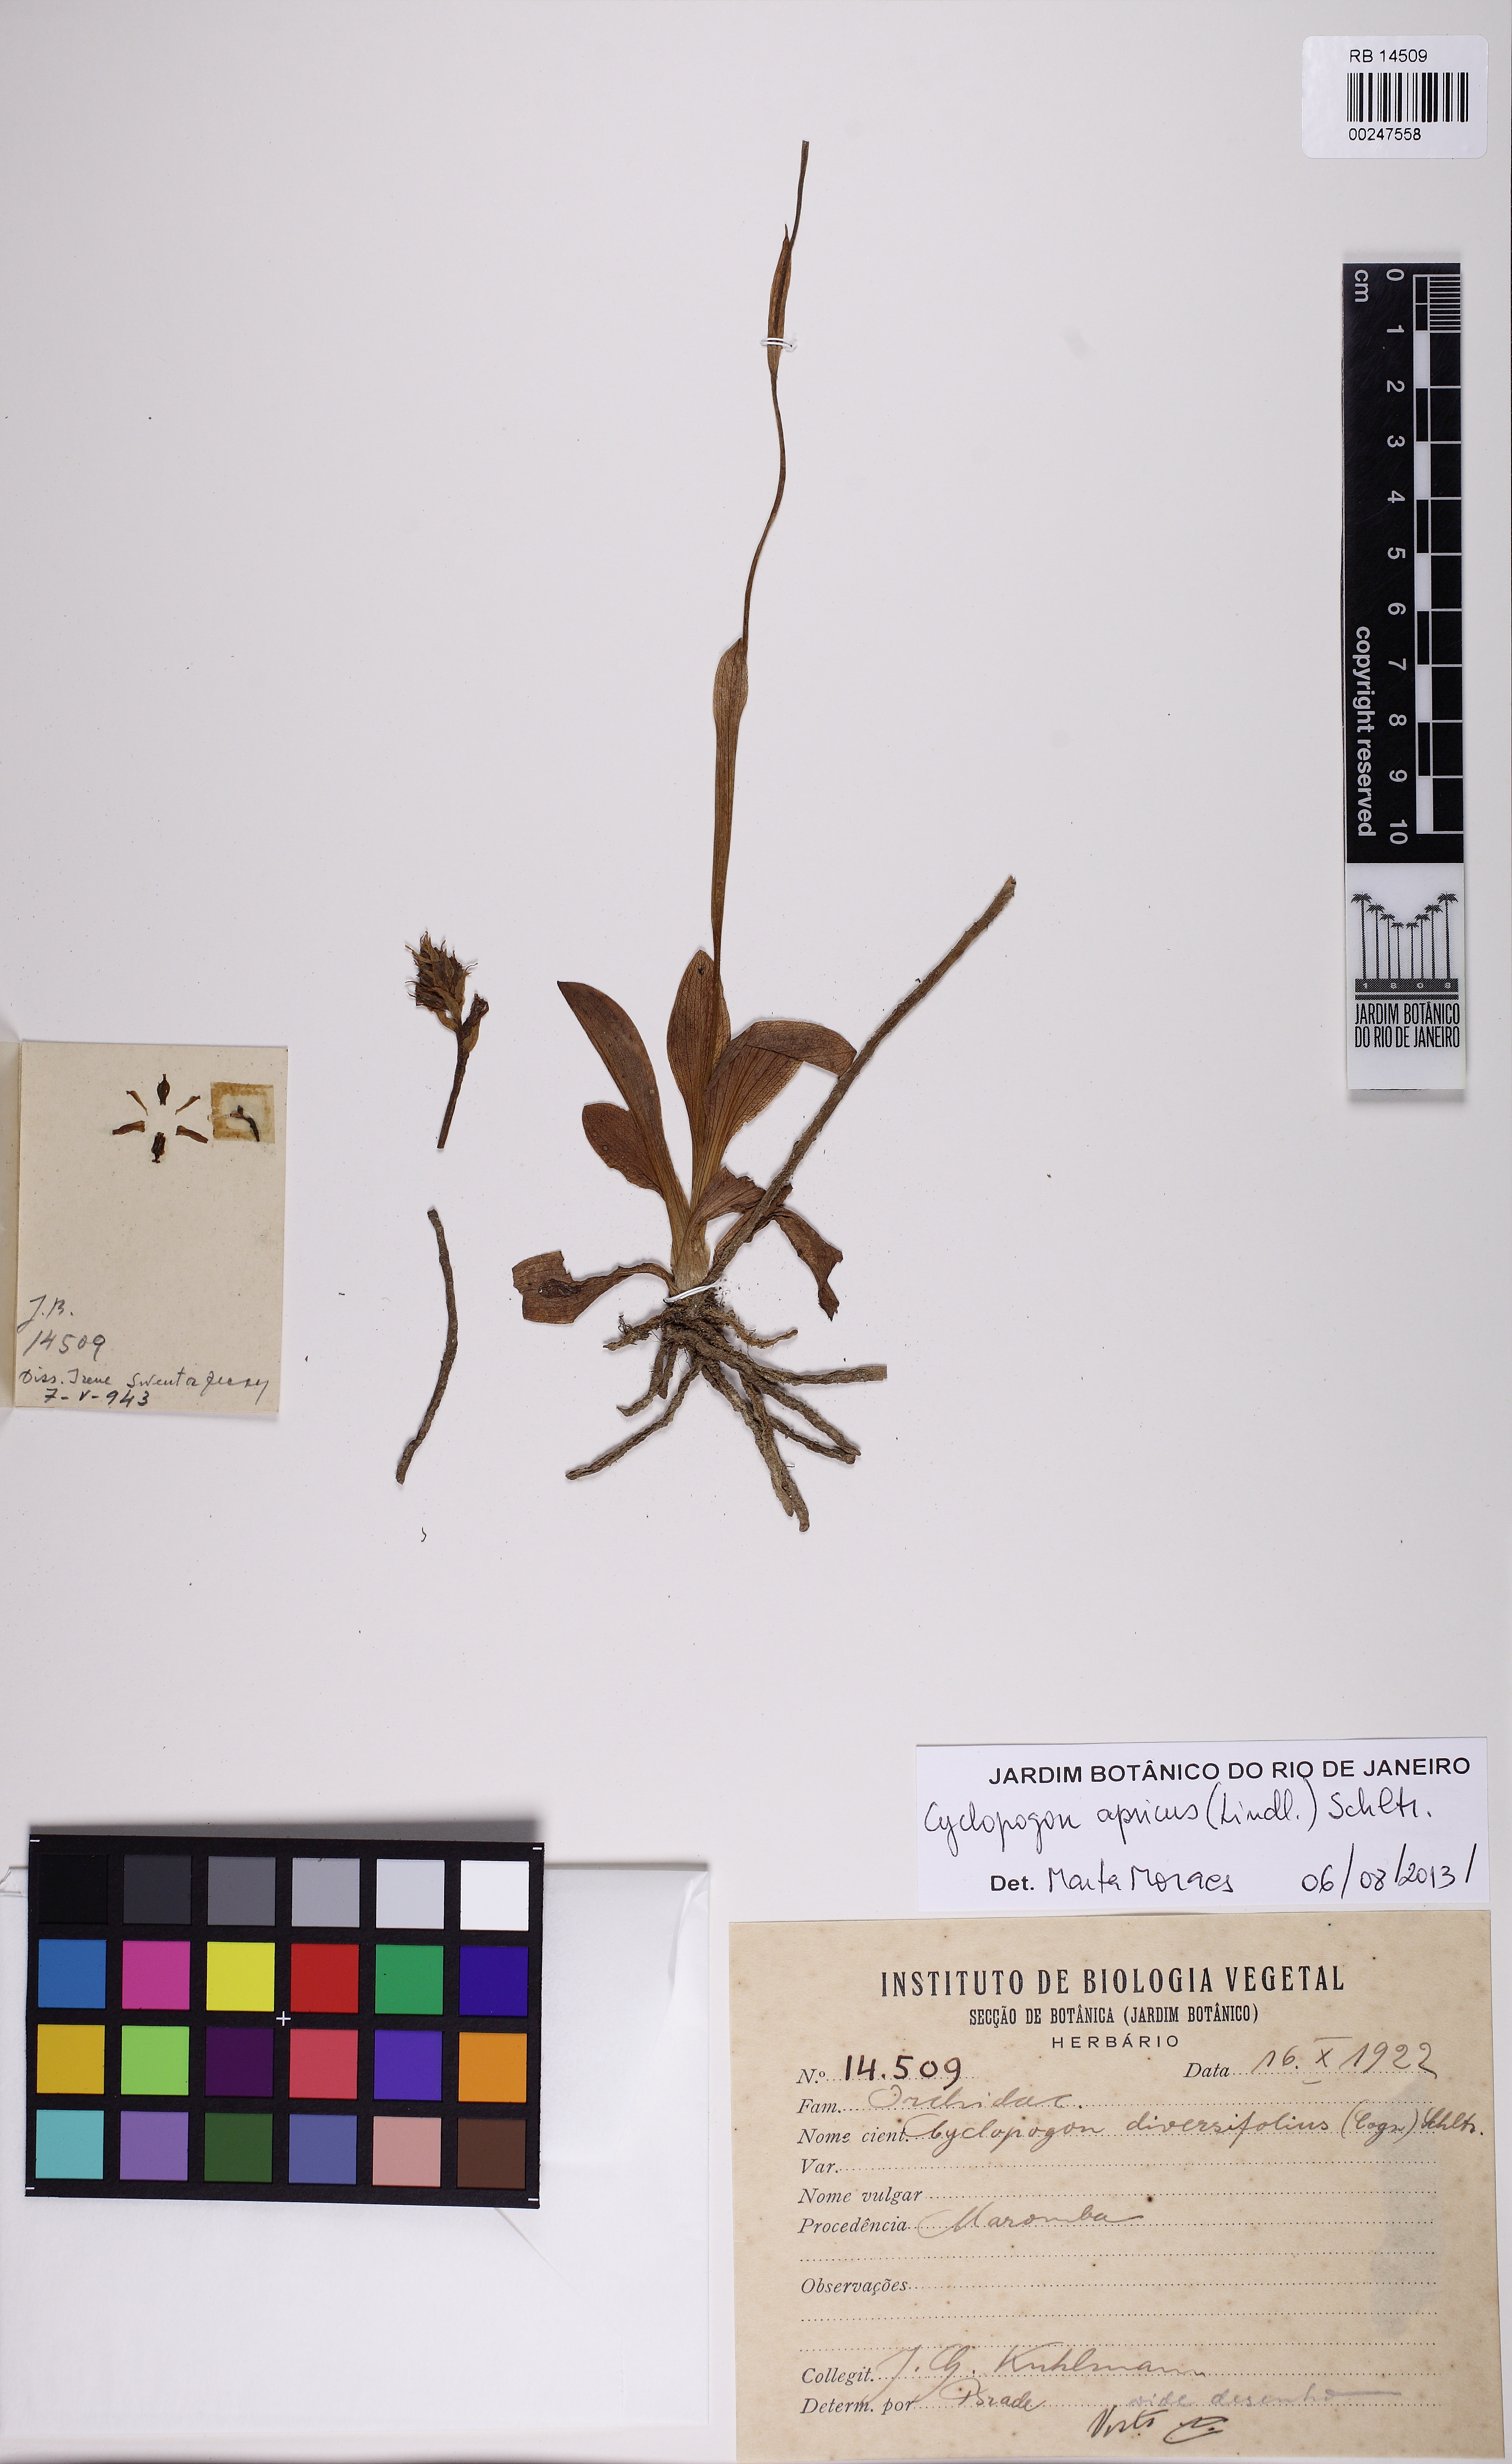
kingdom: Plantae
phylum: Tracheophyta
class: Liliopsida
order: Asparagales
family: Orchidaceae
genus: Cyclopogon
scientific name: Cyclopogon apricus
